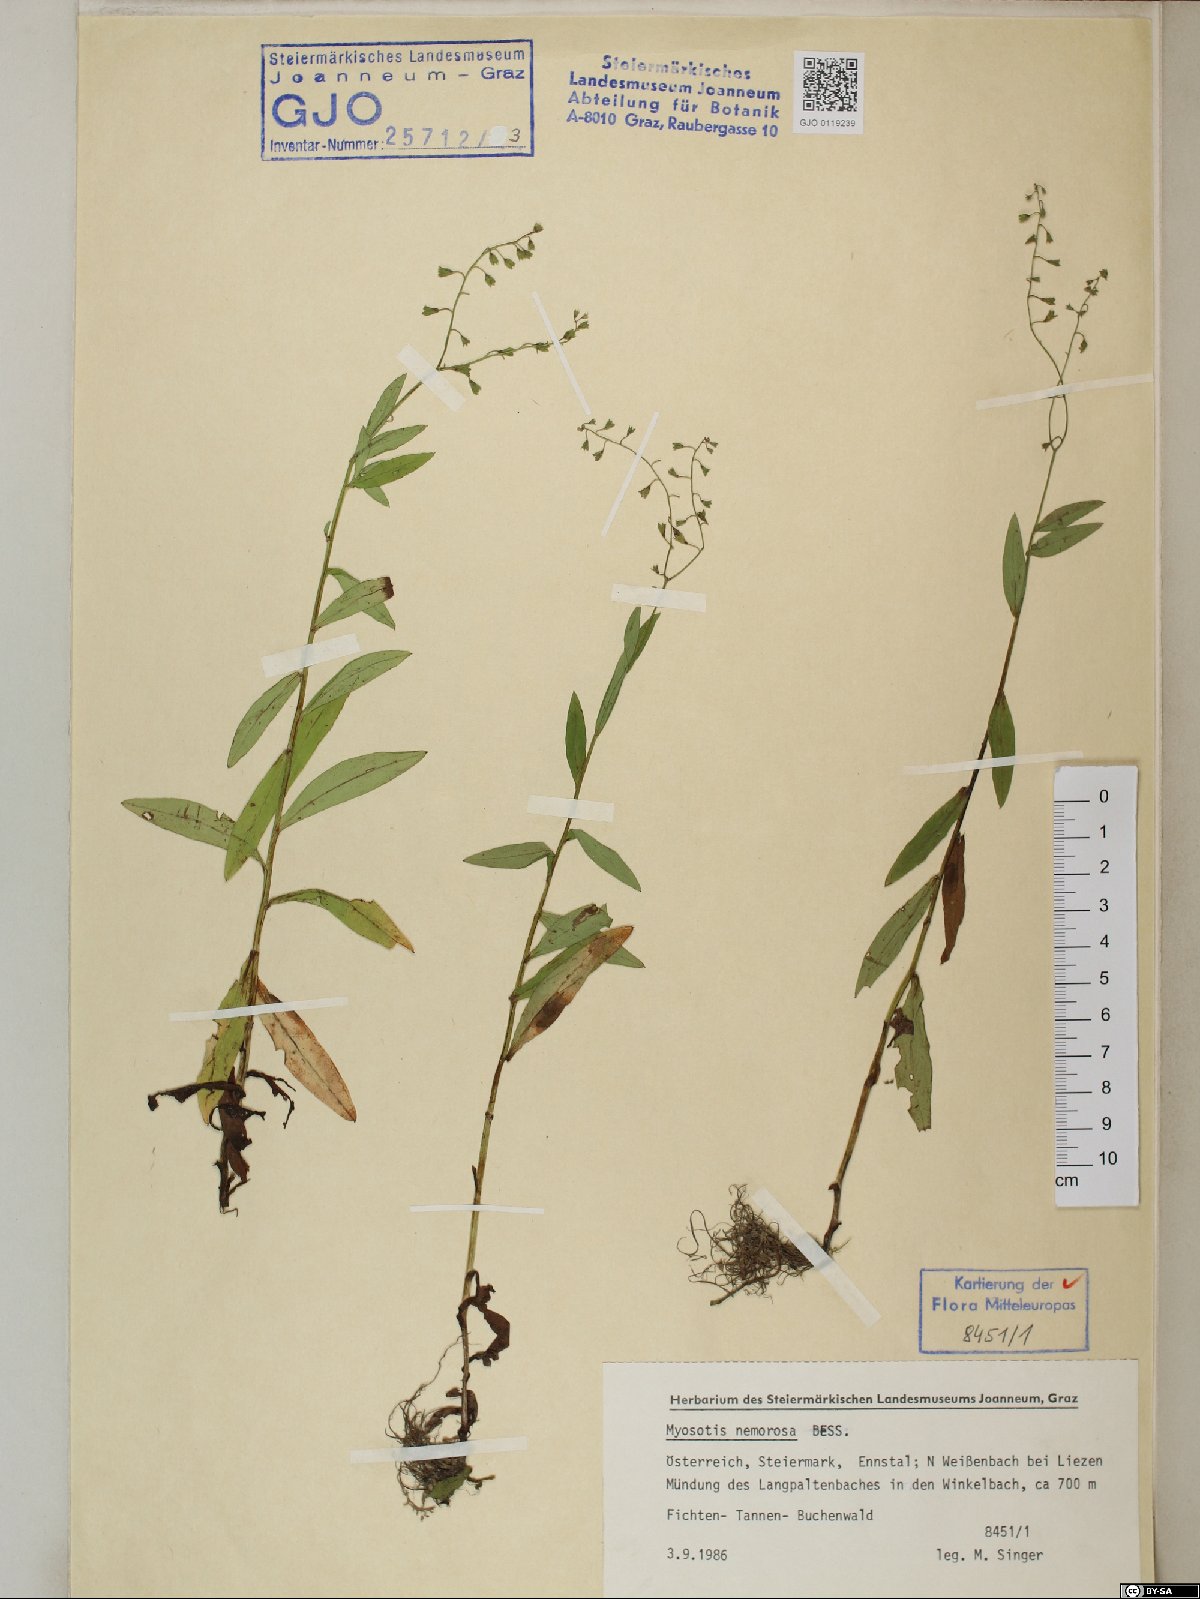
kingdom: Plantae
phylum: Tracheophyta
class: Magnoliopsida
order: Boraginales
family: Boraginaceae
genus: Myosotis
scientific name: Myosotis nemorosa
